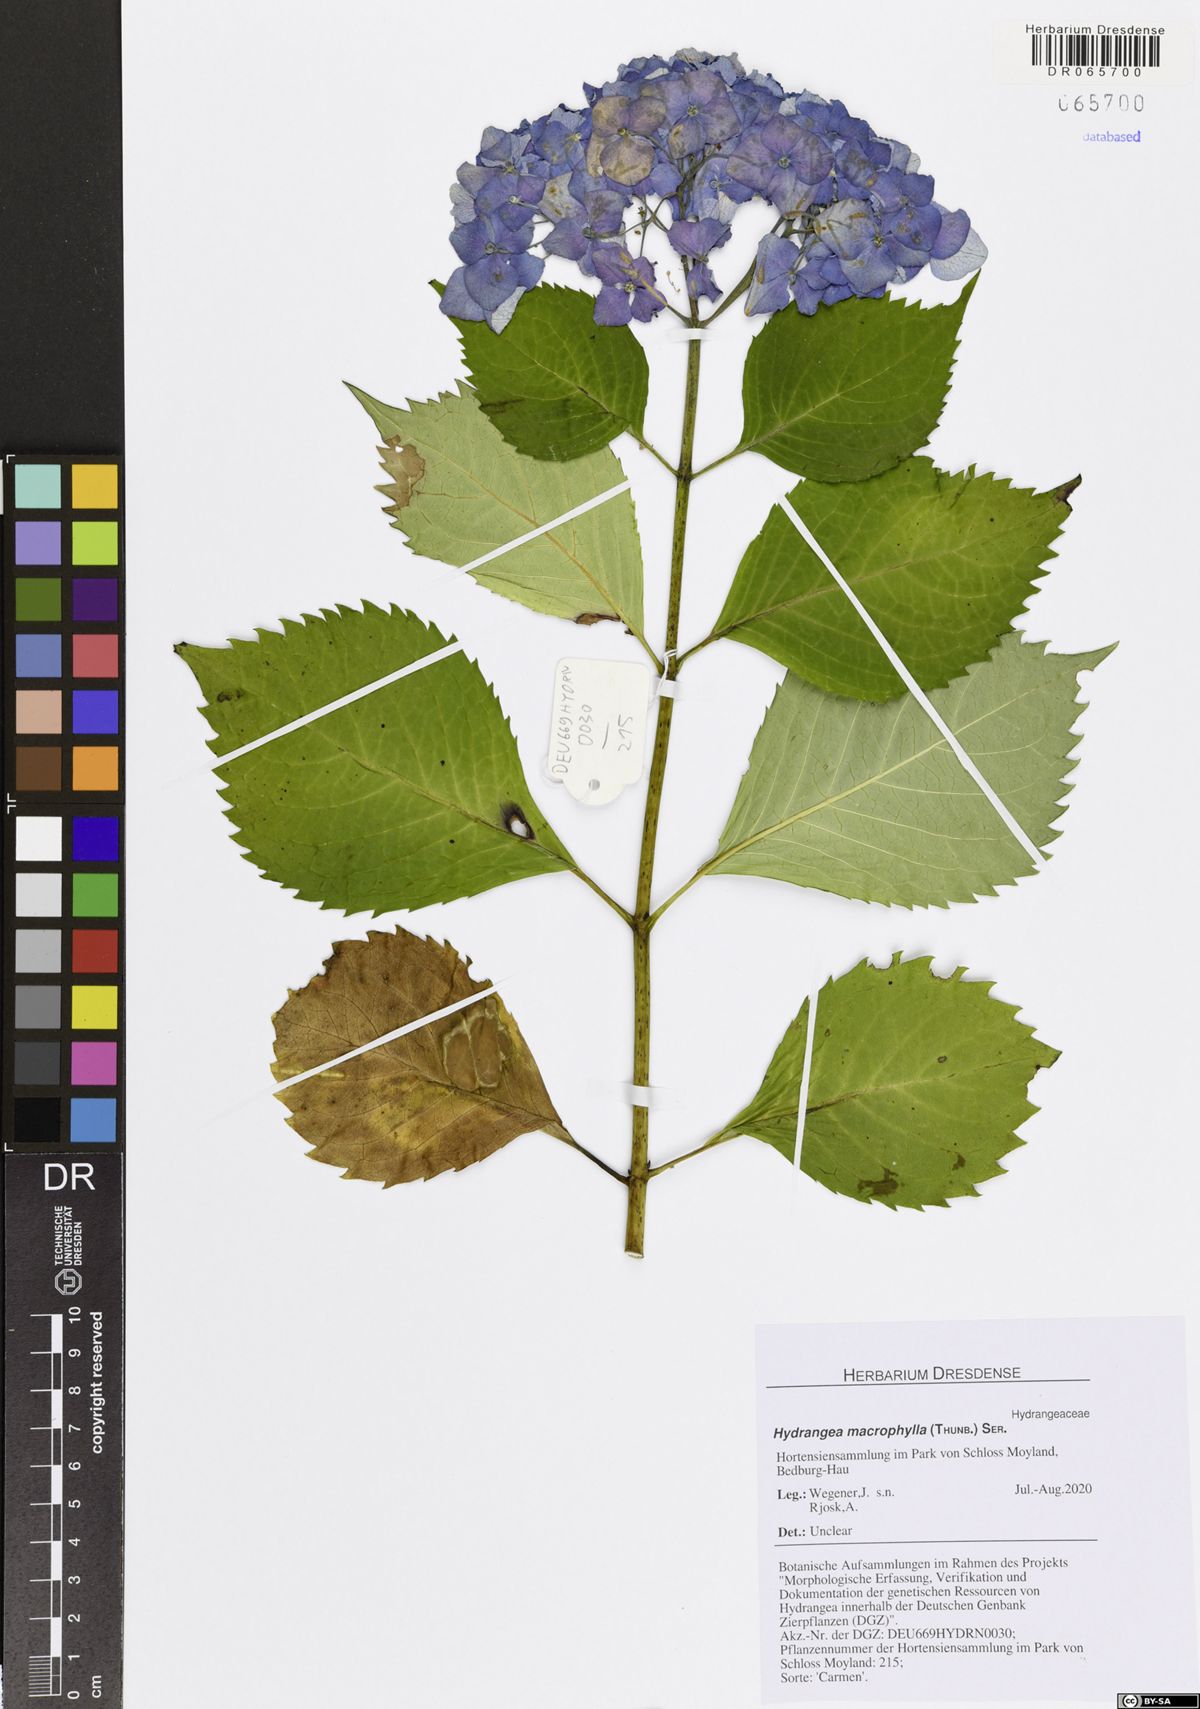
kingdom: Plantae
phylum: Tracheophyta
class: Magnoliopsida
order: Cornales
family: Hydrangeaceae
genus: Hydrangea
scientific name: Hydrangea macrophylla
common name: Hydrangea
